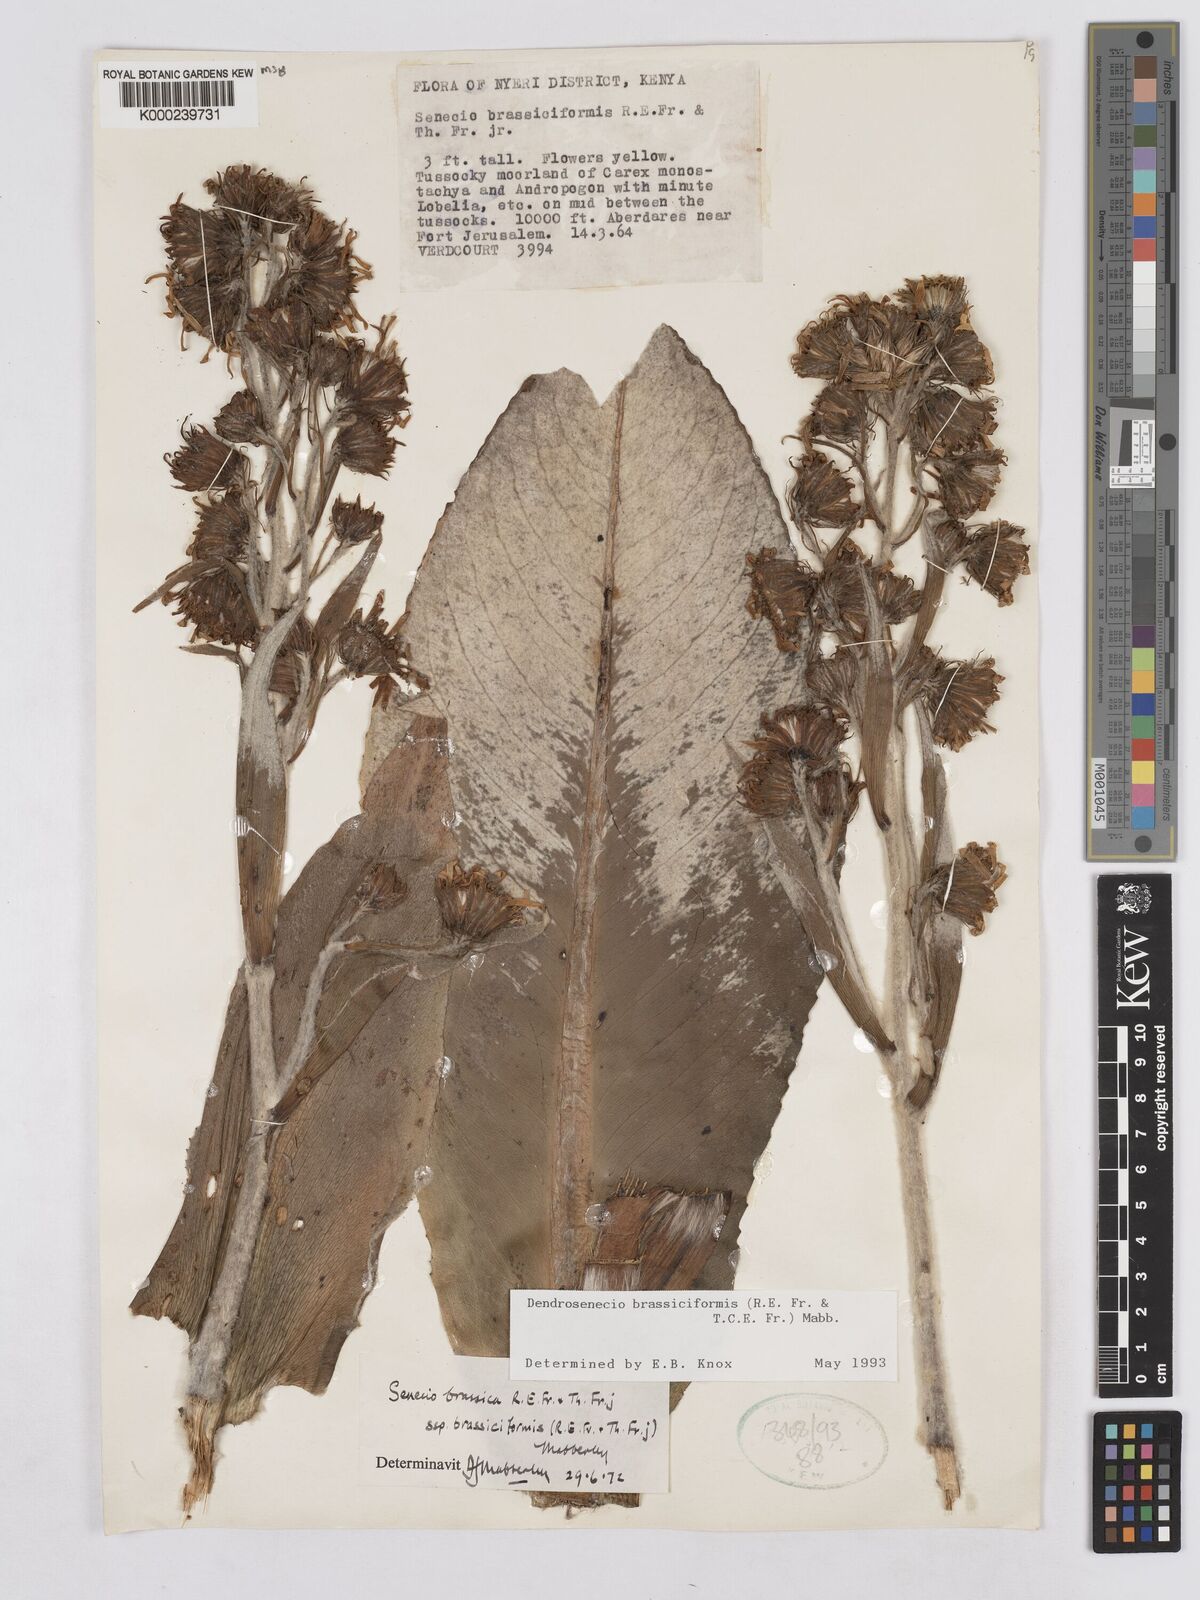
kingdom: Plantae
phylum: Tracheophyta
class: Magnoliopsida
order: Asterales
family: Asteraceae
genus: Dendrosenecio
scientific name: Dendrosenecio brassiciformis
